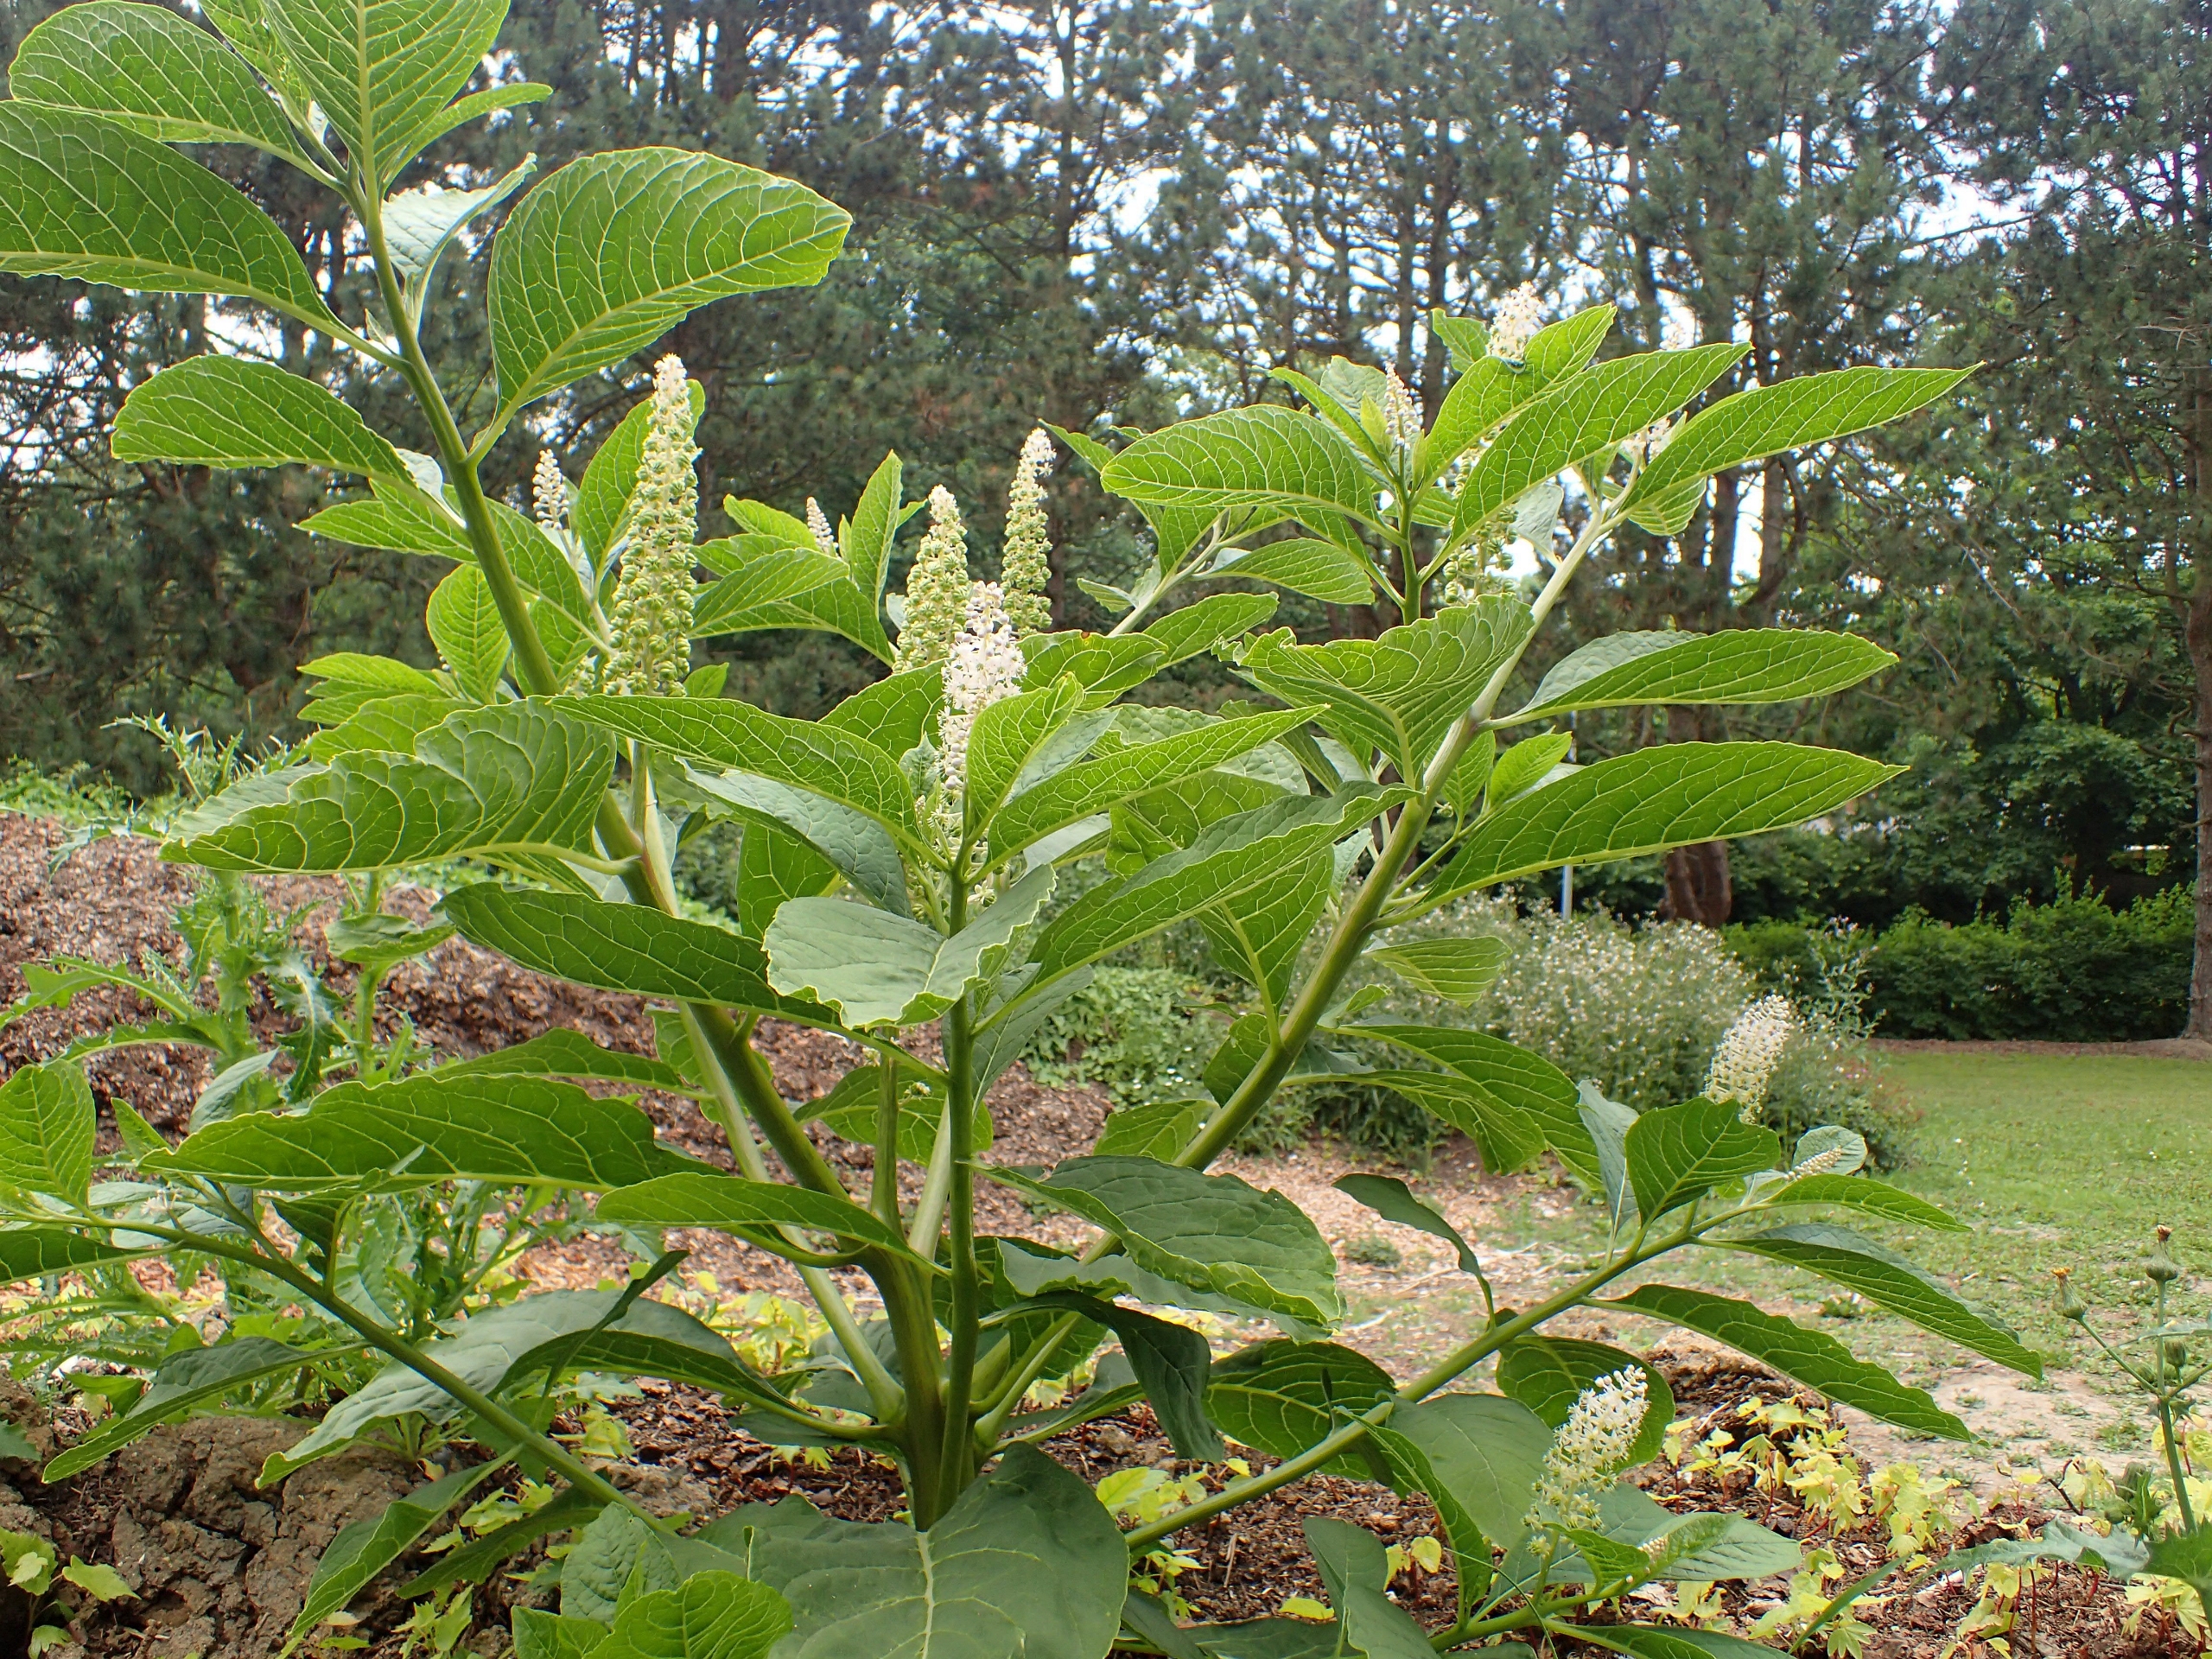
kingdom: Plantae
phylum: Tracheophyta
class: Magnoliopsida
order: Caryophyllales
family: Phytolaccaceae
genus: Phytolacca
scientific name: Phytolacca acinosa
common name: Asiatisk kermesbær
